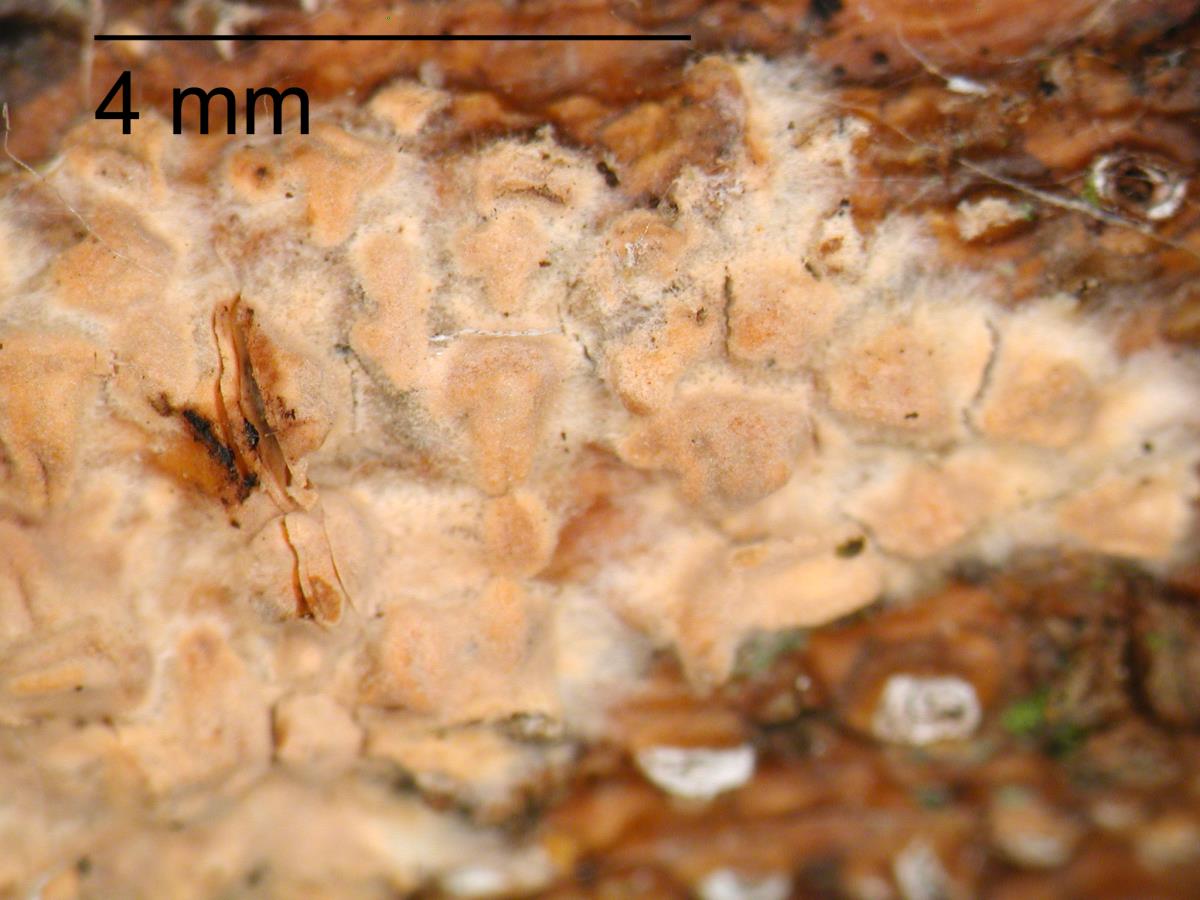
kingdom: Fungi
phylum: Basidiomycota
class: Agaricomycetes
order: Russulales
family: Peniophoraceae
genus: Peniophora
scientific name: Peniophora incarnata
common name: Rosy crust
